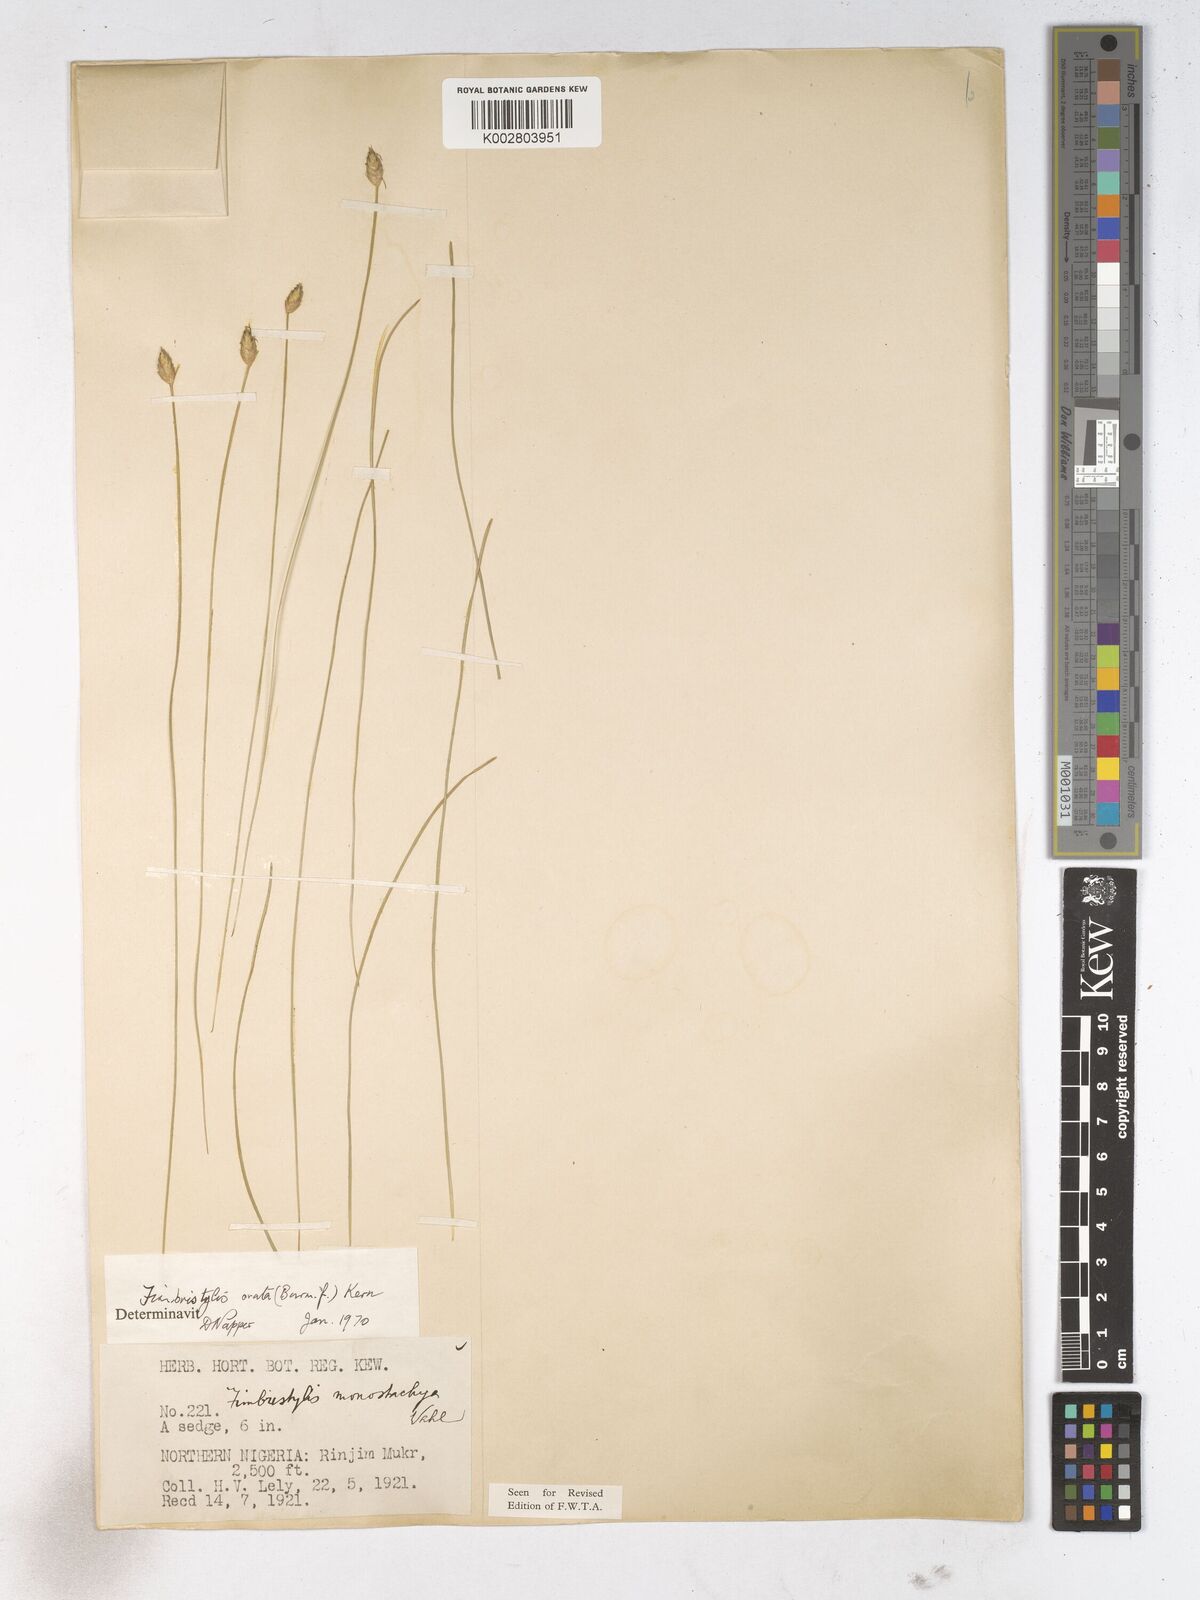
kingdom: Plantae
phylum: Tracheophyta
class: Liliopsida
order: Poales
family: Cyperaceae
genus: Abildgaardia
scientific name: Abildgaardia ovata
